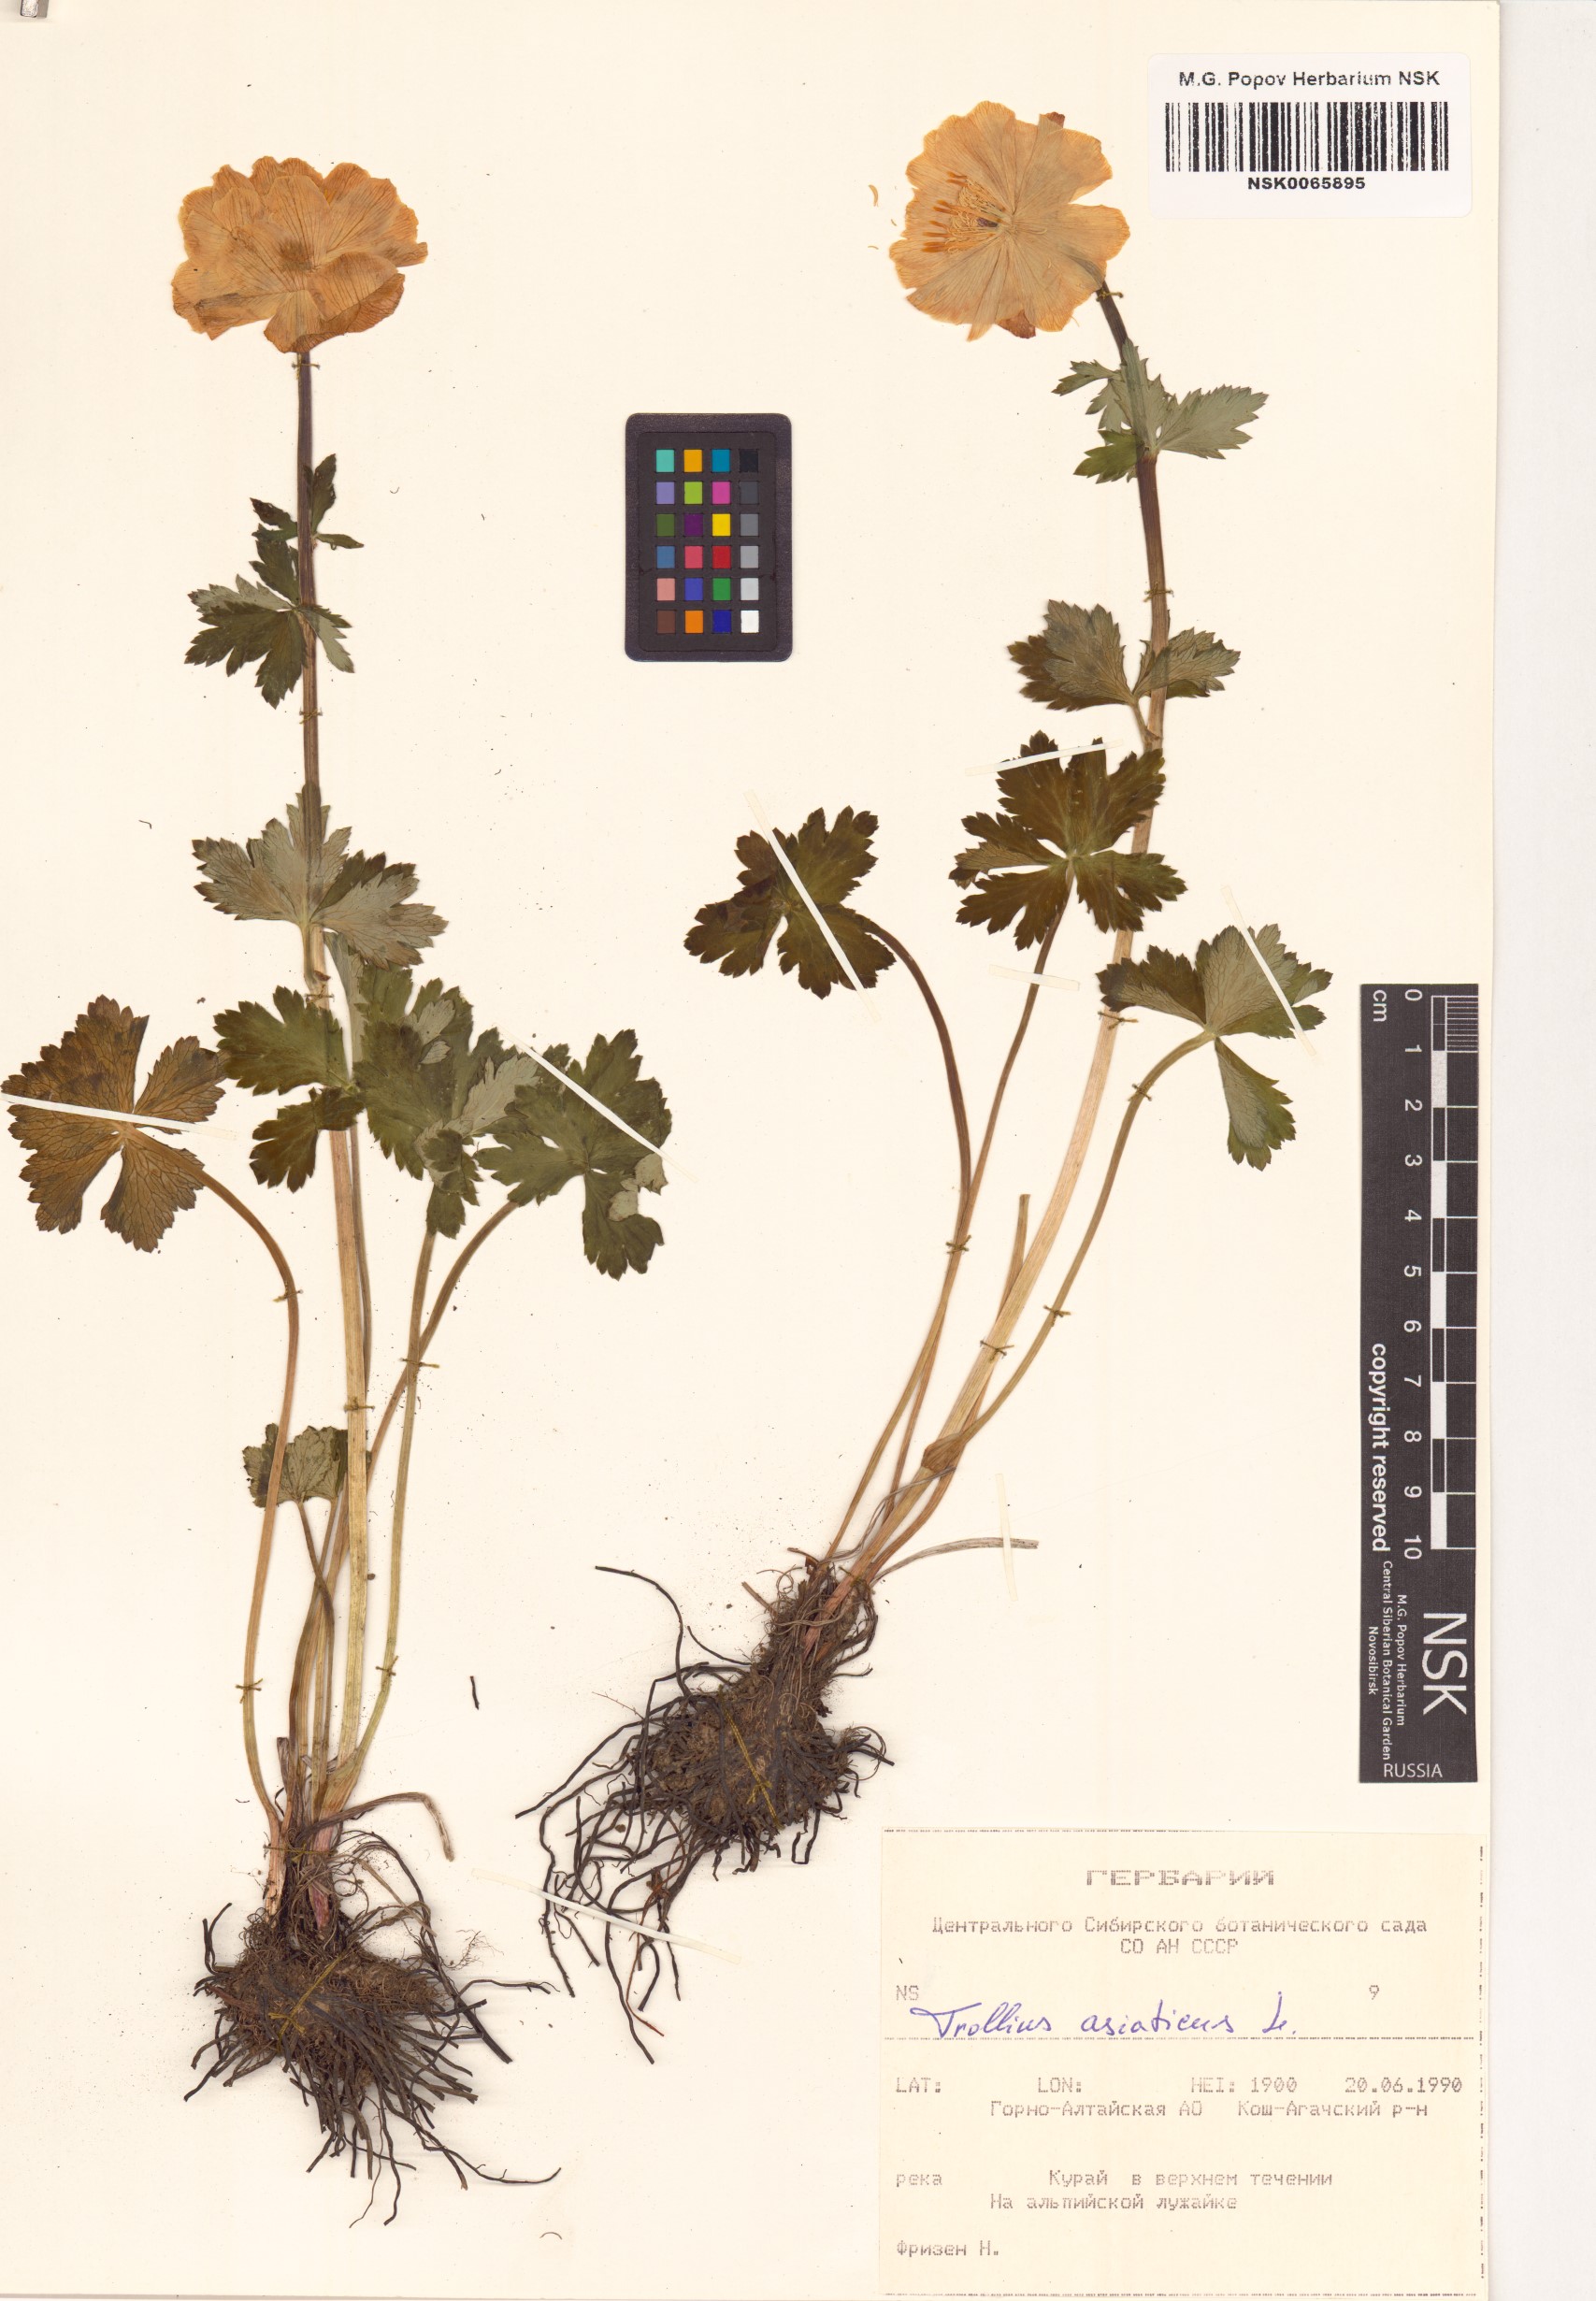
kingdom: Plantae
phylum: Tracheophyta
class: Magnoliopsida
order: Ranunculales
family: Ranunculaceae
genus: Trollius
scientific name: Trollius asiaticus
